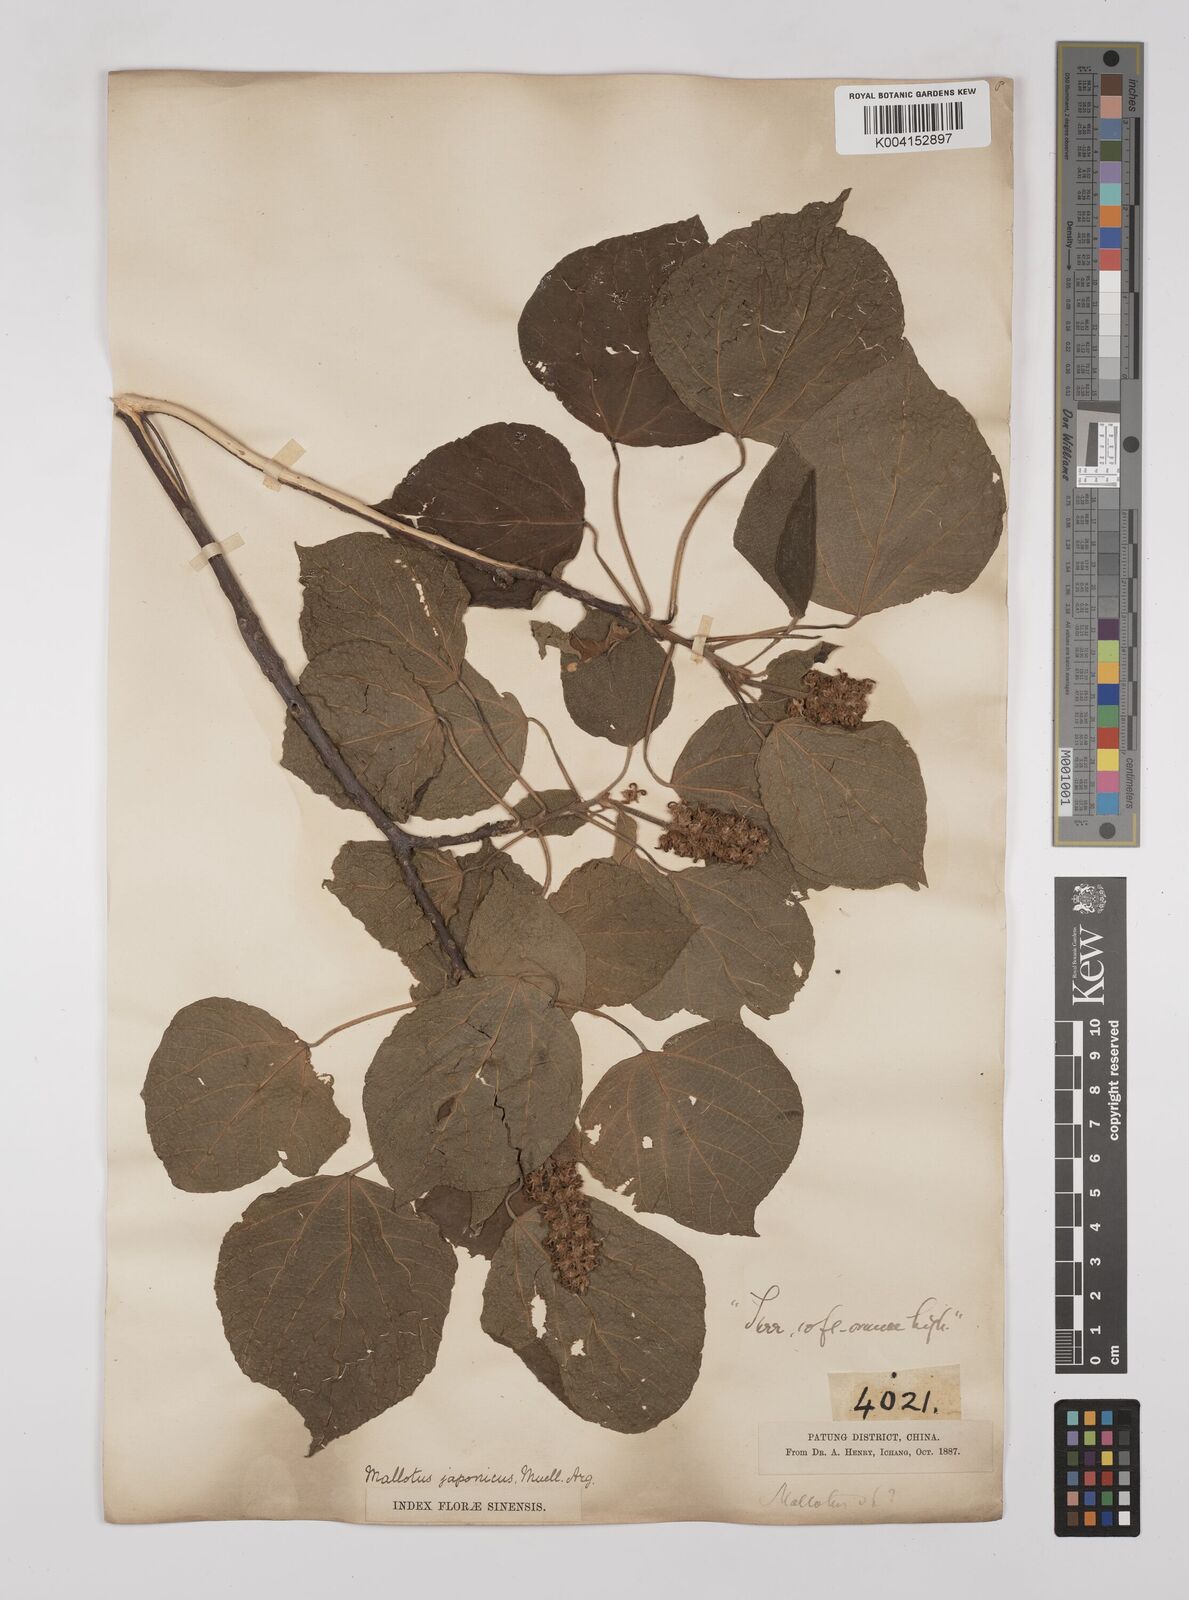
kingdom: Plantae
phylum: Tracheophyta
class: Magnoliopsida
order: Malpighiales
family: Euphorbiaceae
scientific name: Euphorbiaceae
